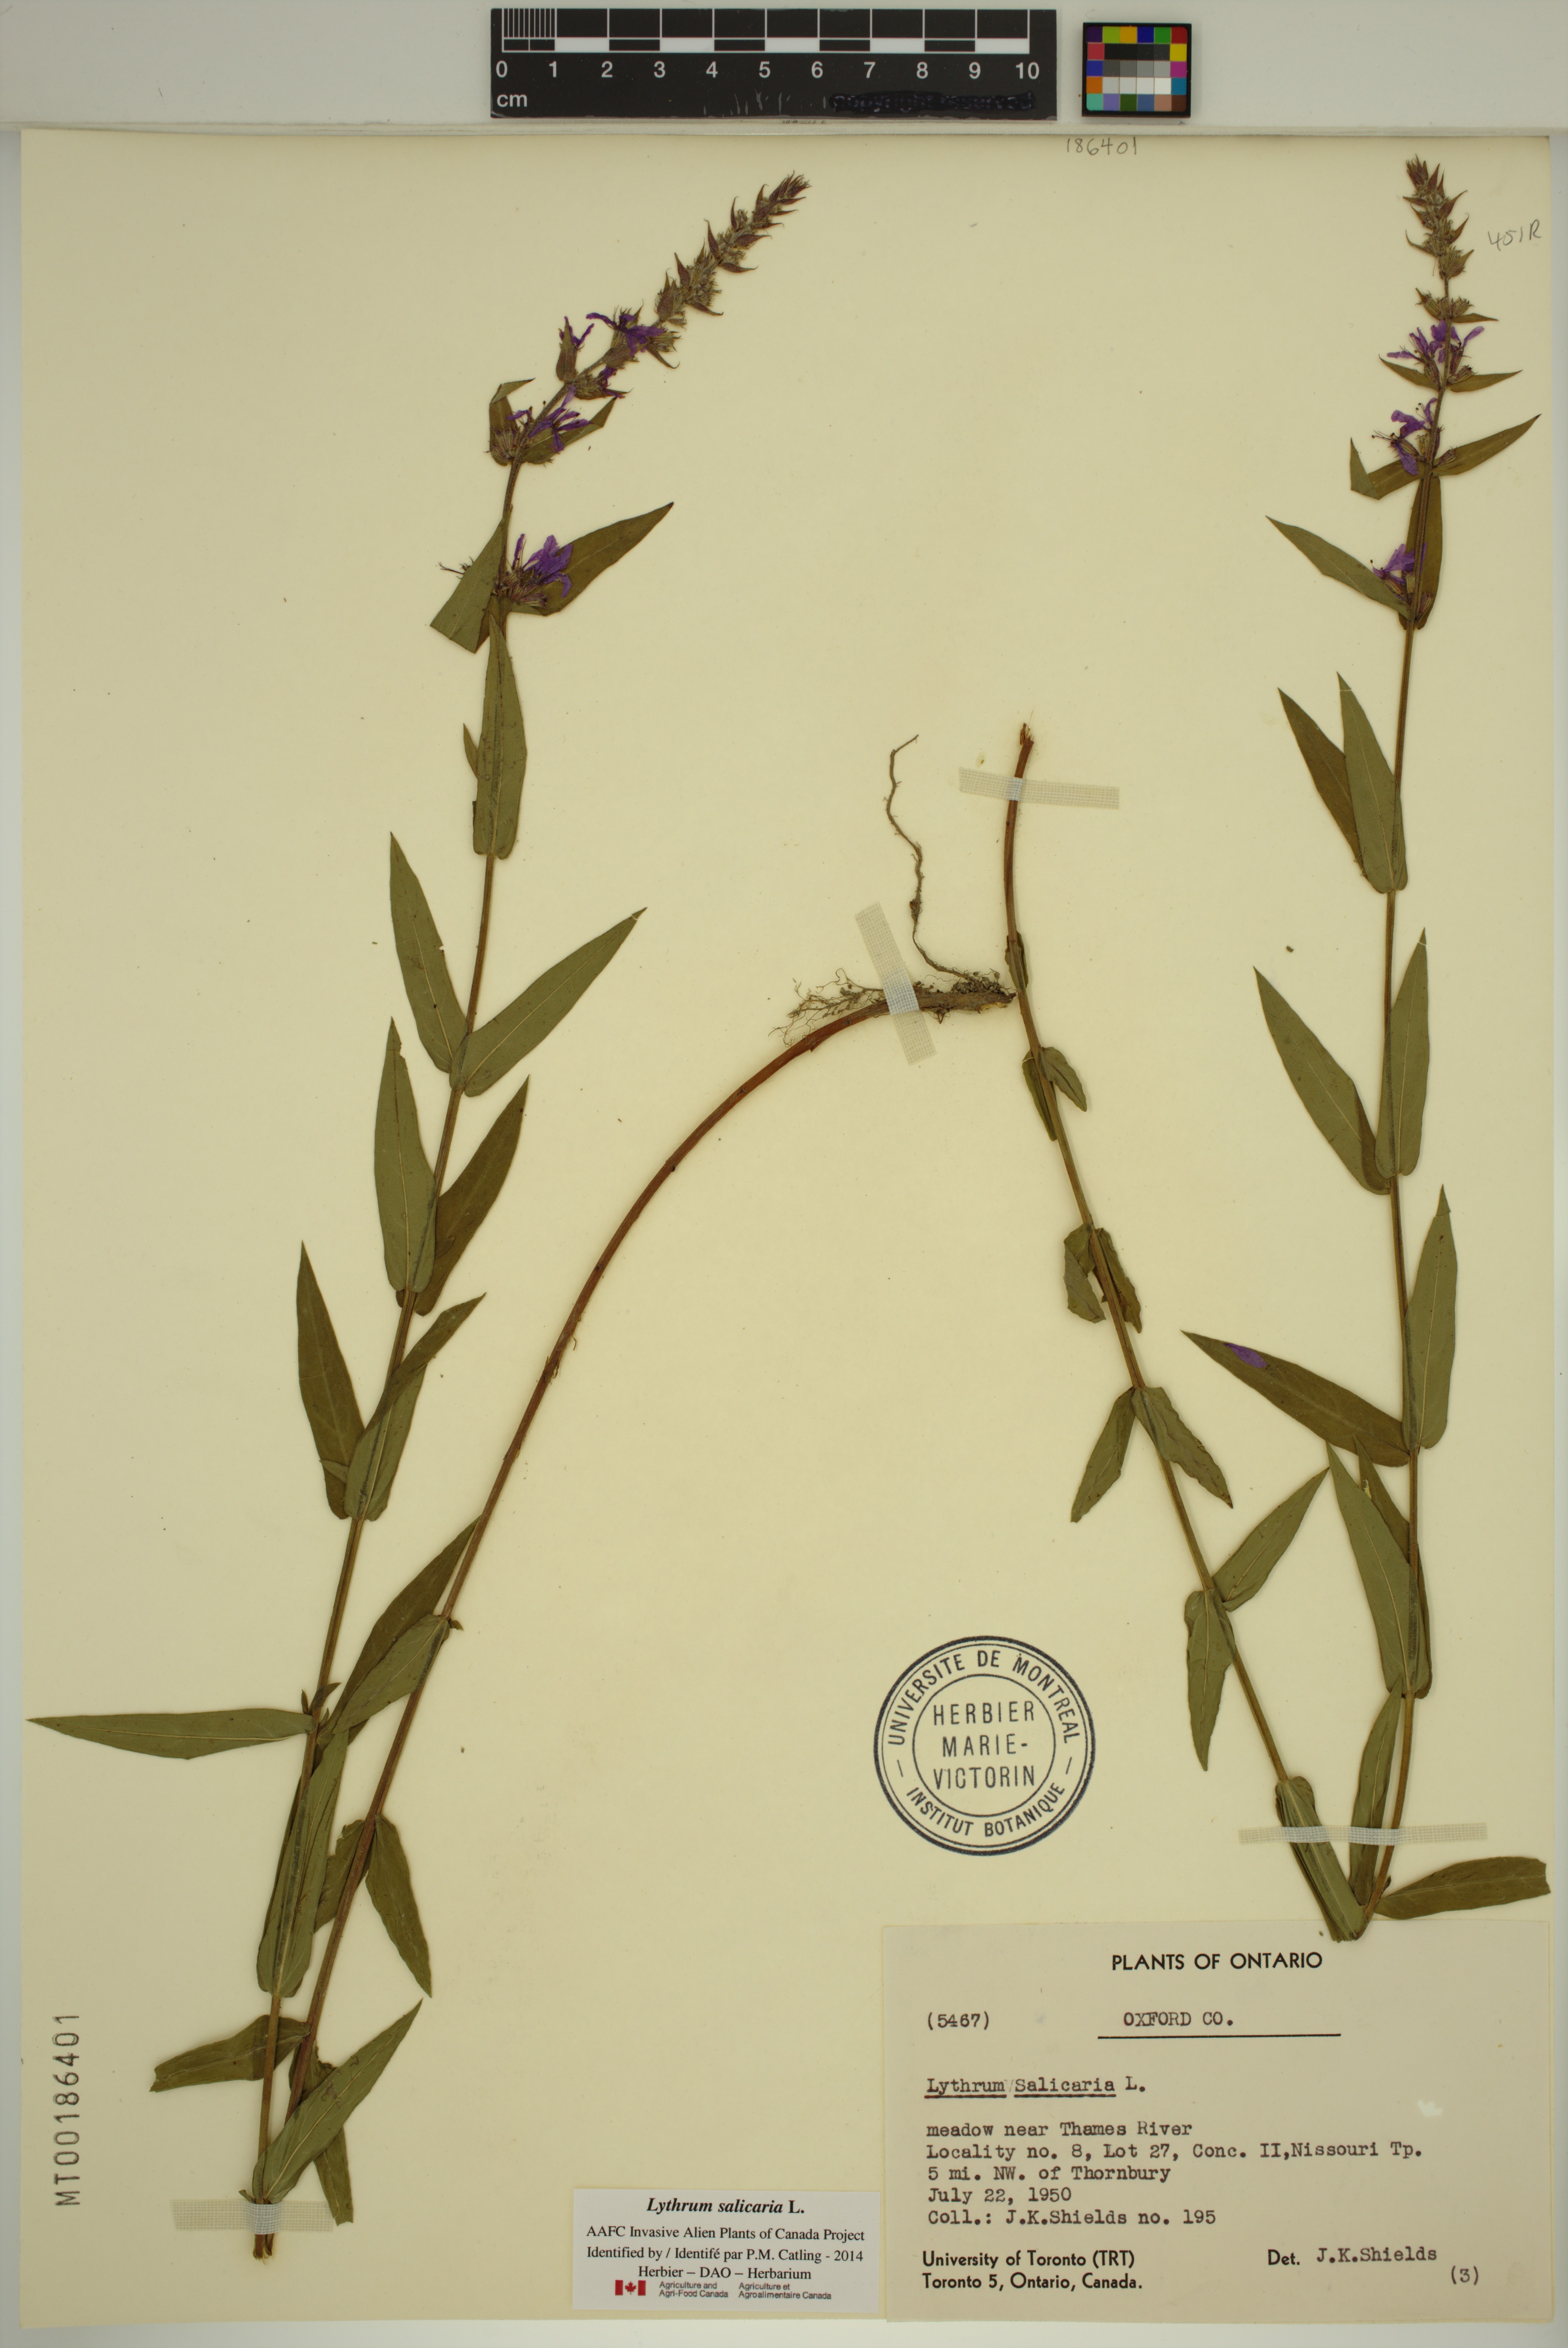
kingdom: Plantae
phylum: Tracheophyta
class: Magnoliopsida
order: Myrtales
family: Lythraceae
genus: Lythrum
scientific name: Lythrum salicaria
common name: Purple loosestrife
